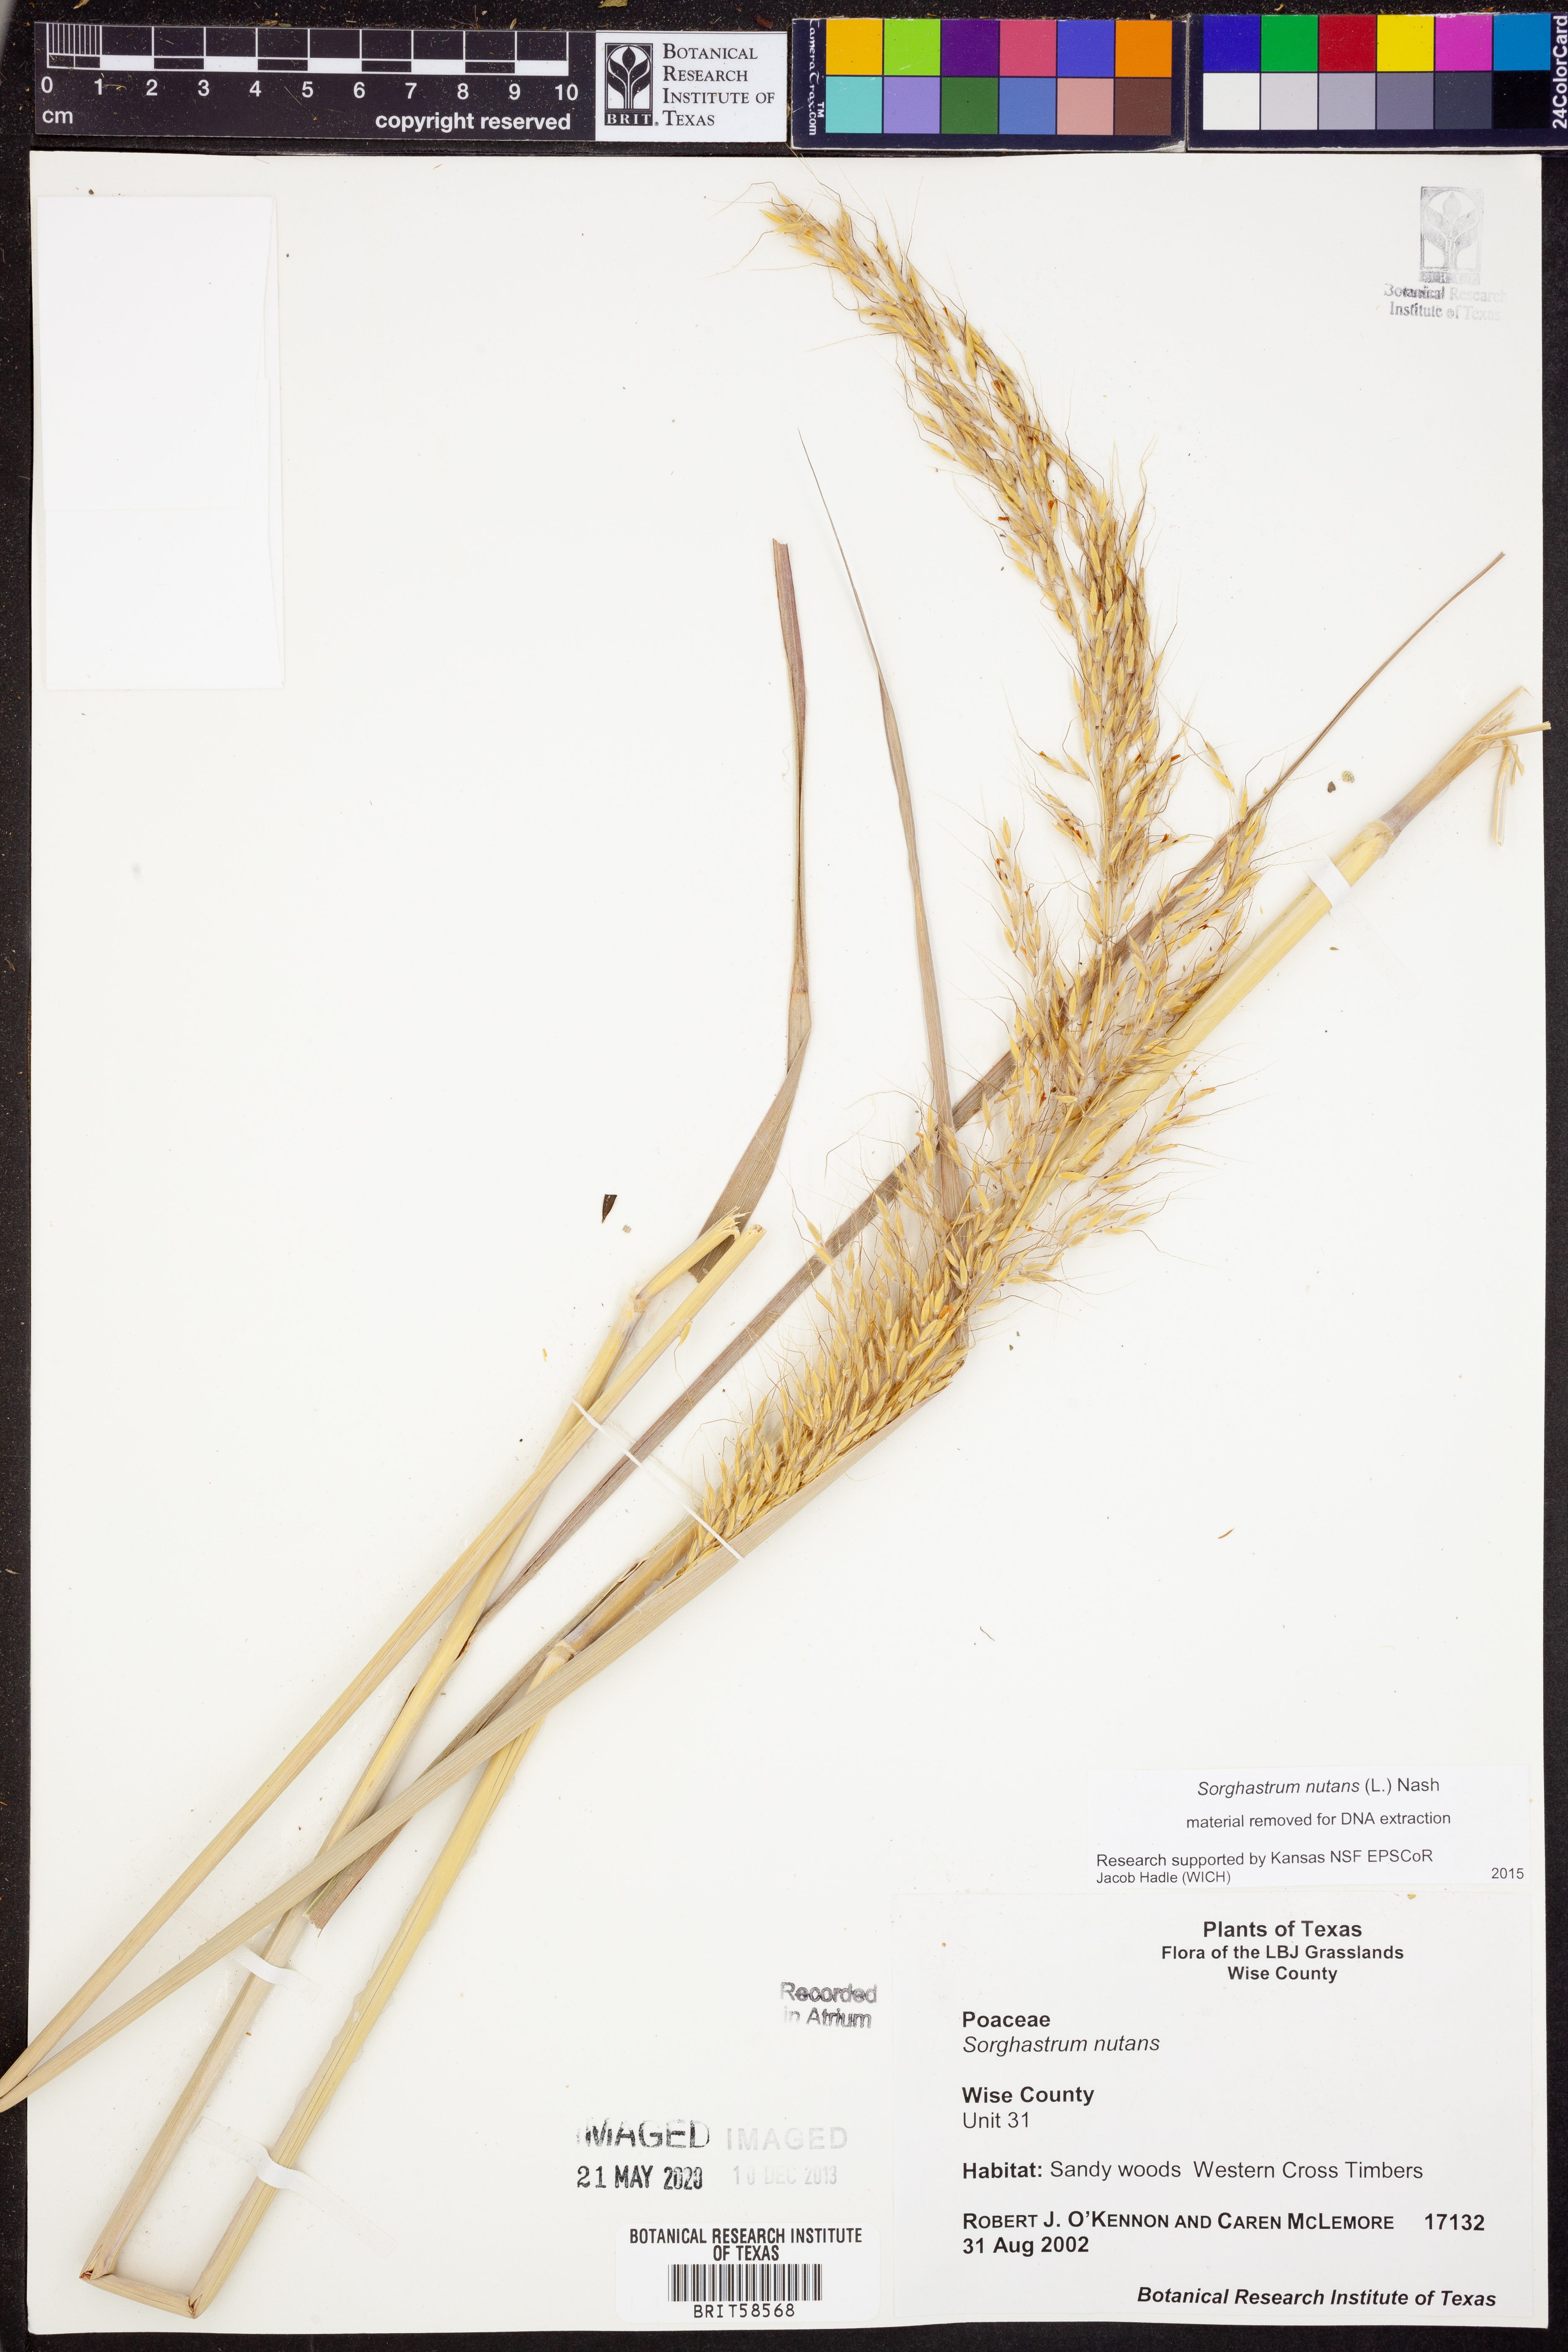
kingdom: Plantae
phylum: Tracheophyta
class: Liliopsida
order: Poales
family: Poaceae
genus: Sorghastrum
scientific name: Sorghastrum nutans
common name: Indian grass
